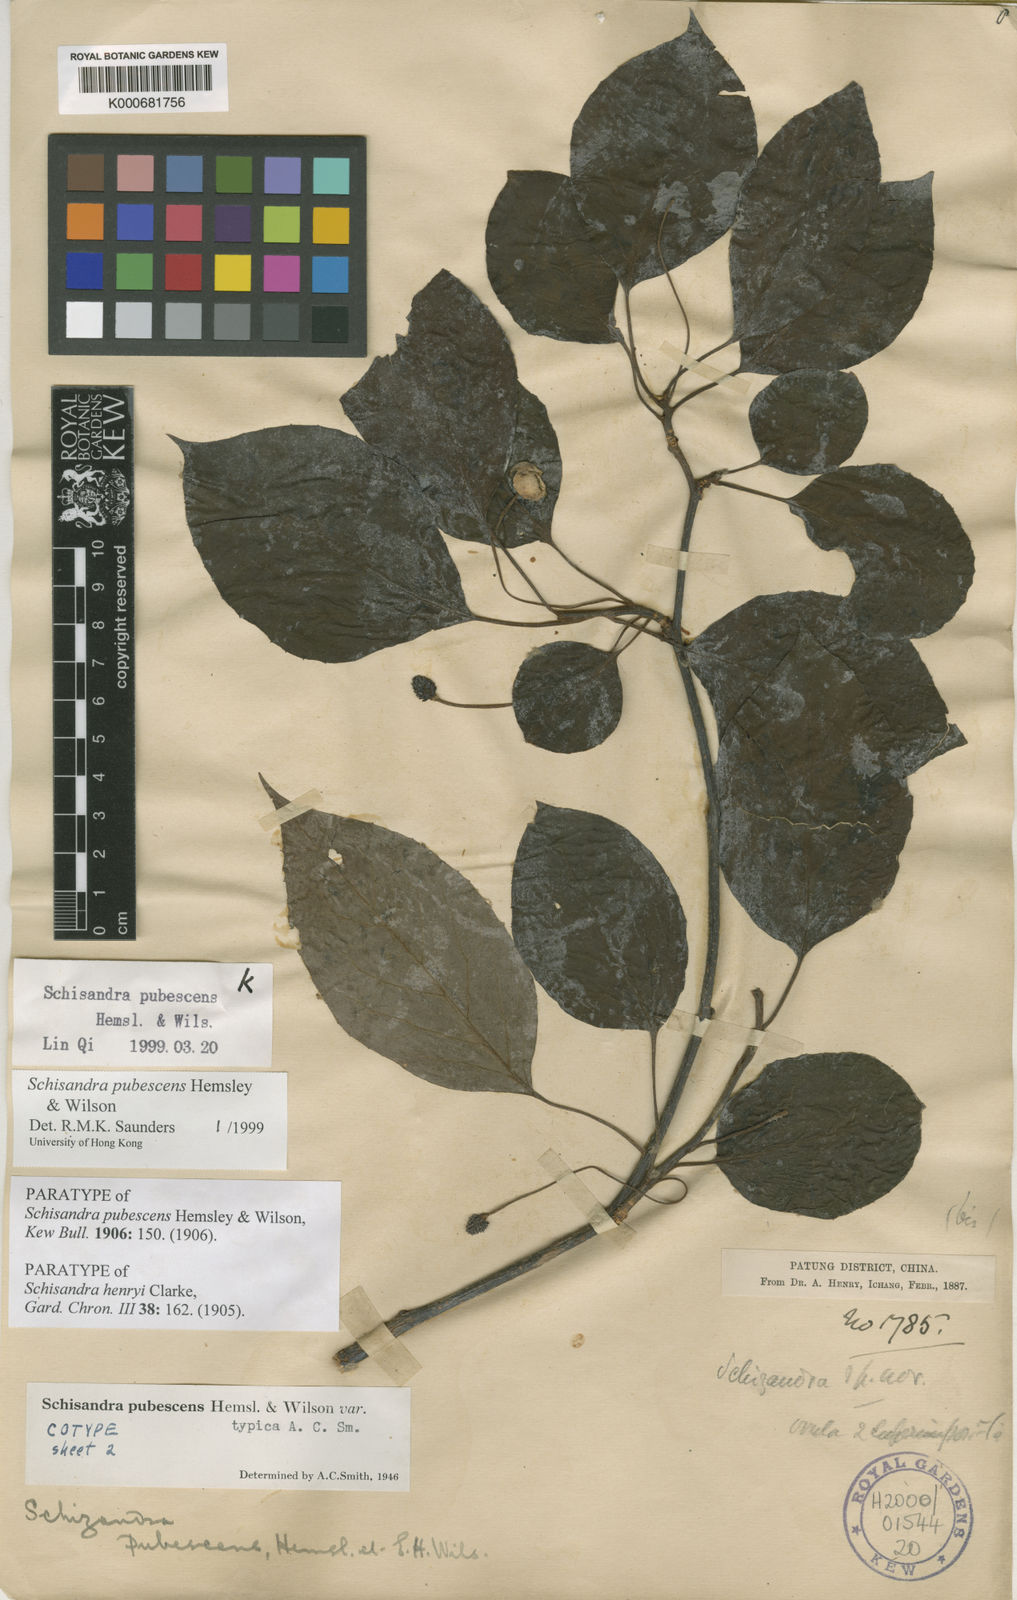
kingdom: Plantae
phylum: Tracheophyta
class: Magnoliopsida
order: Austrobaileyales
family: Schisandraceae
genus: Schisandra
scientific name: Schisandra pubescens
